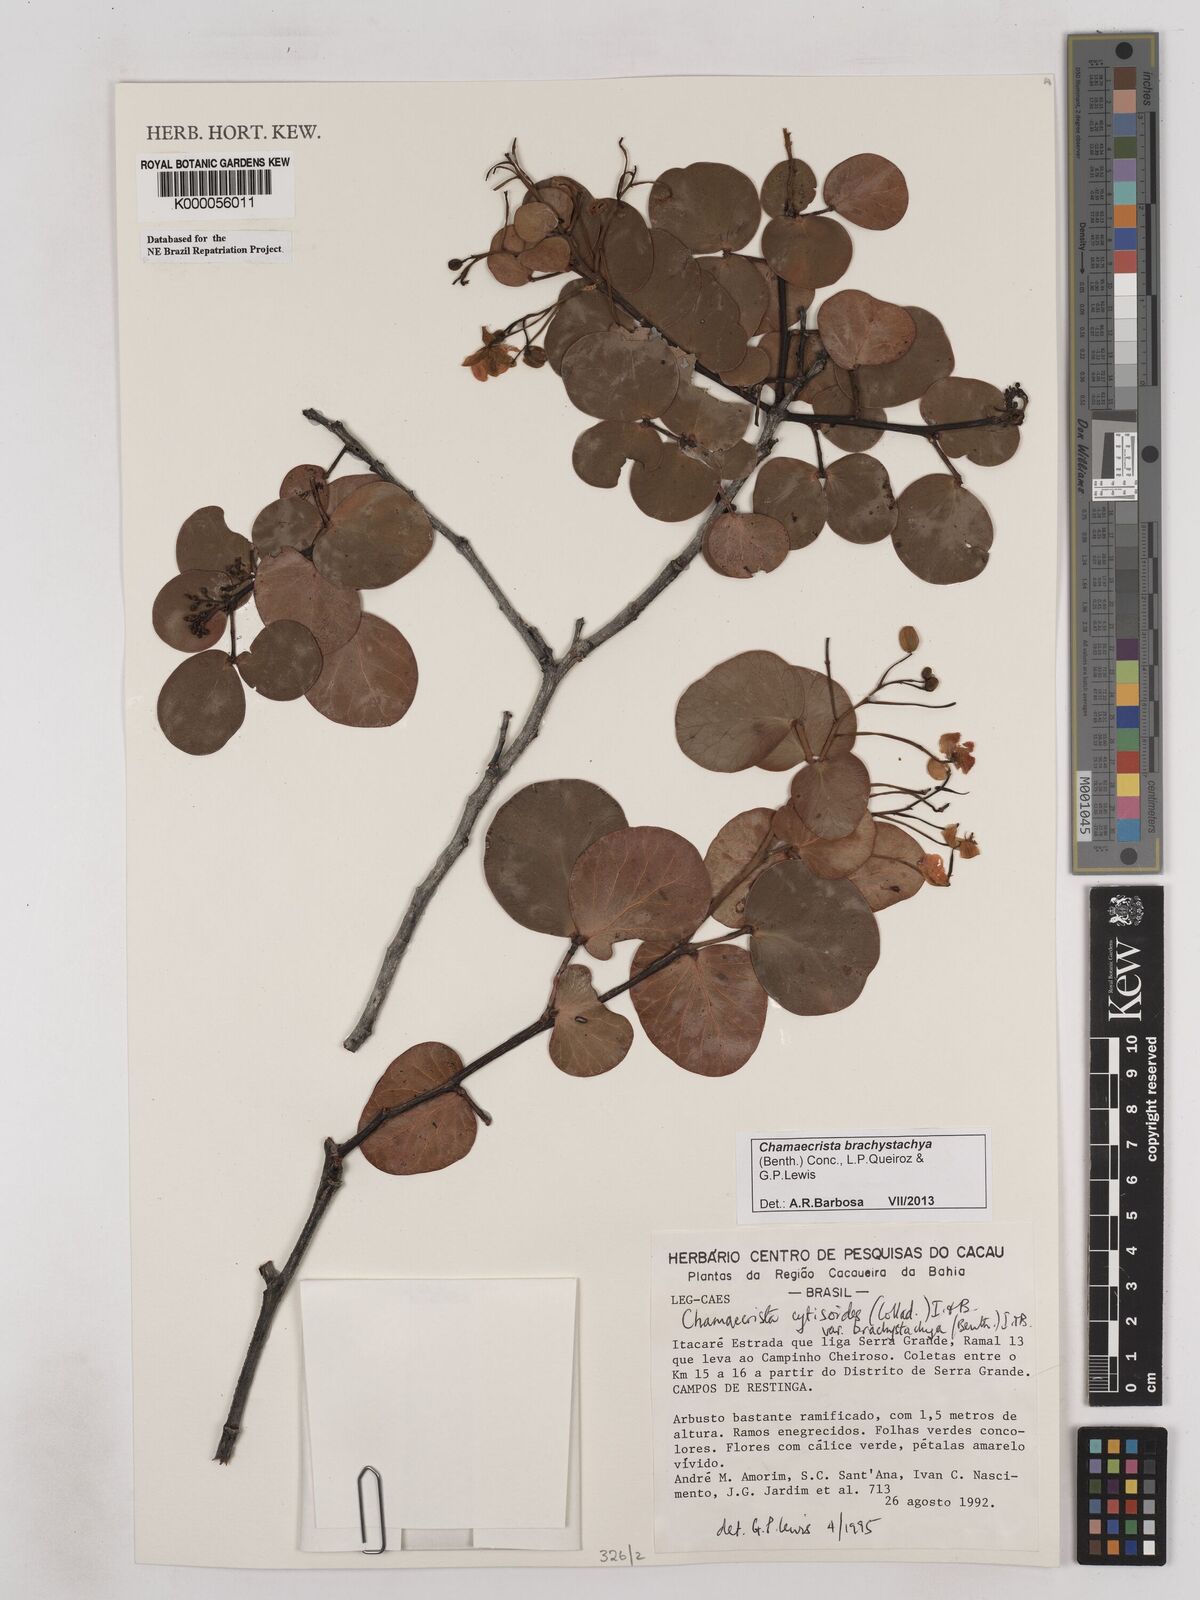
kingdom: Plantae
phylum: Tracheophyta
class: Magnoliopsida
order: Fabales
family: Fabaceae
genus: Chamaecrista
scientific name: Chamaecrista cytisoides
